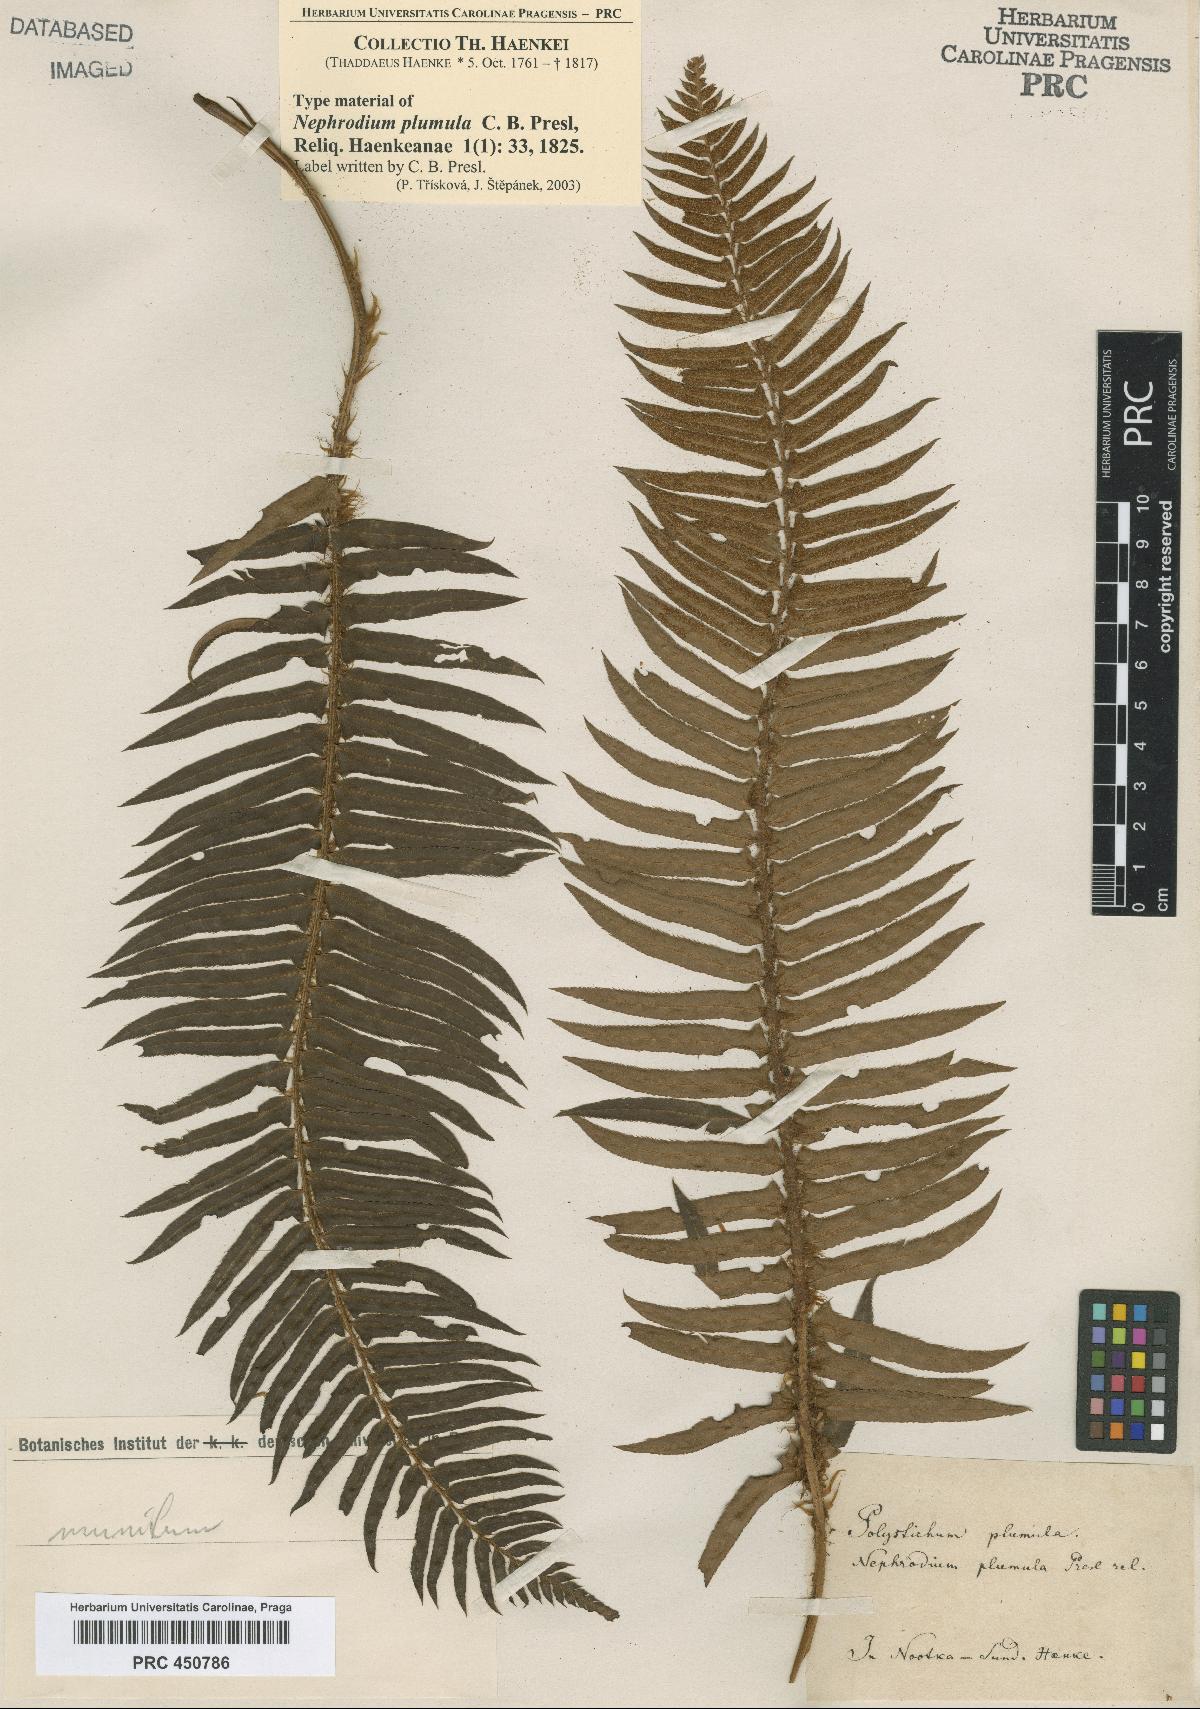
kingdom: Plantae
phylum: Tracheophyta
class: Polypodiopsida
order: Polypodiales
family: Dryopteridaceae
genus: Polystichum
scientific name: Polystichum munitum
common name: Western sword-fern
